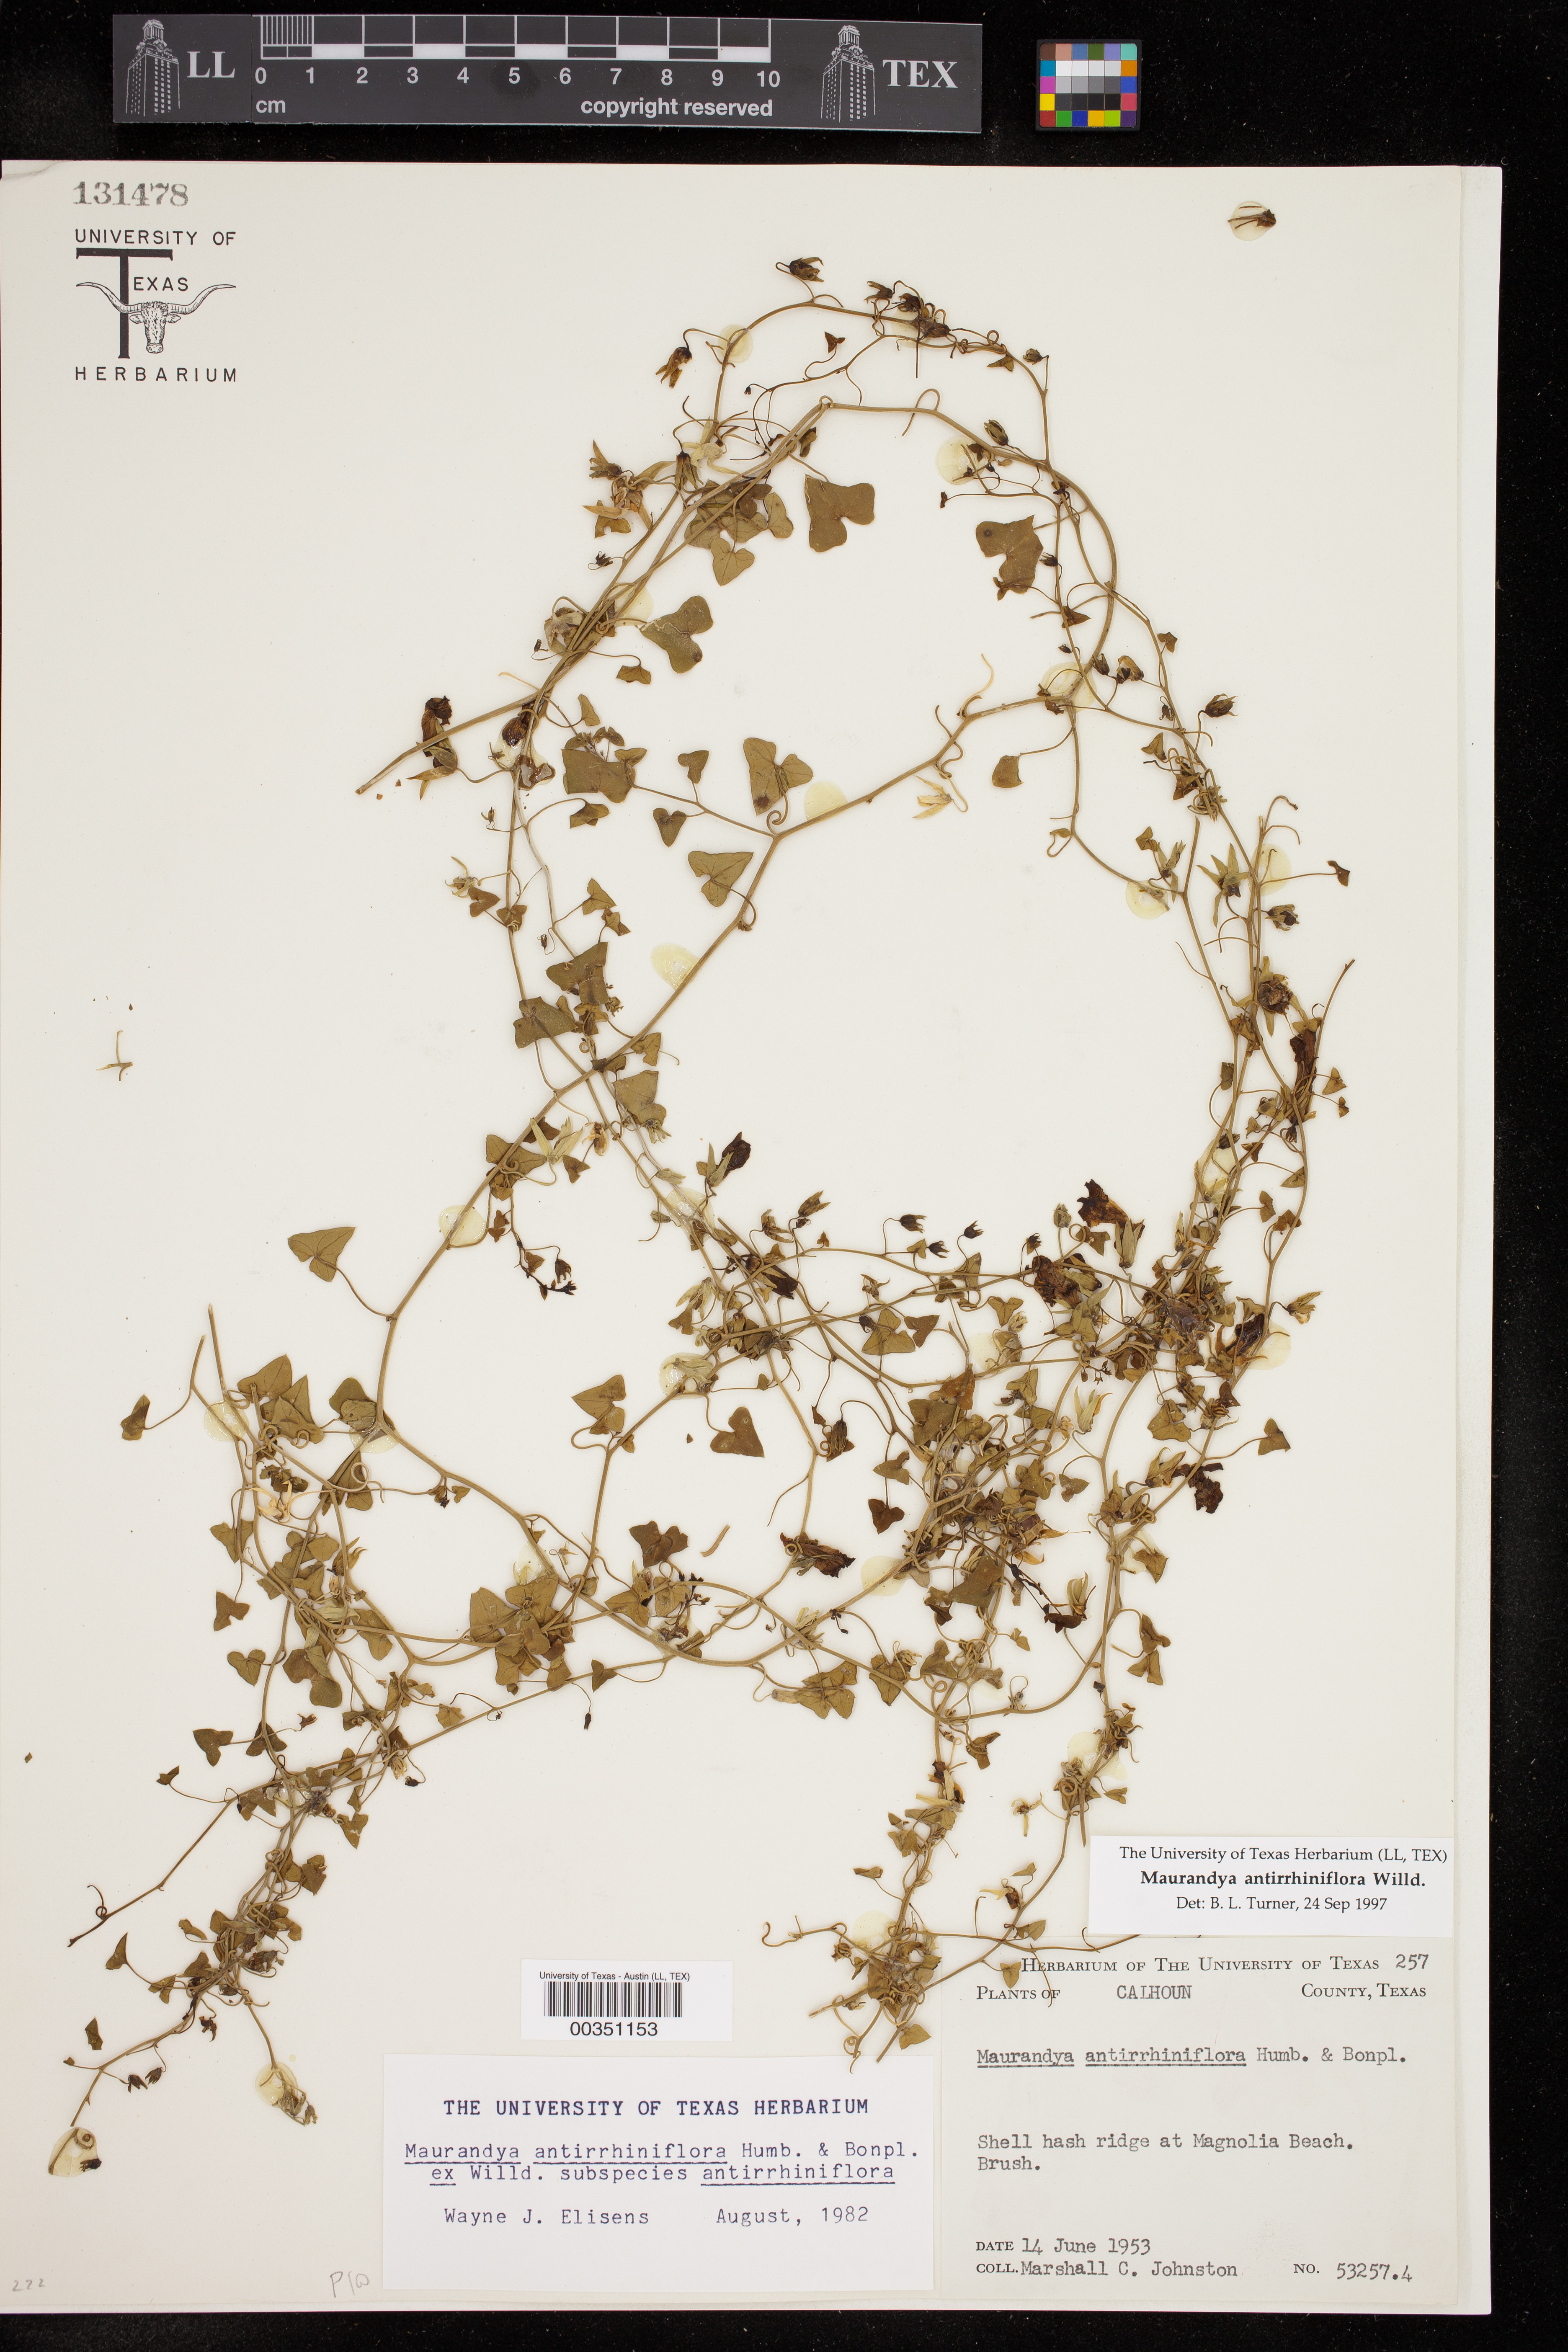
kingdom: Plantae
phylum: Tracheophyta
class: Magnoliopsida
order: Lamiales
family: Plantaginaceae
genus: Maurandella
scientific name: Maurandella antirrhiniflora
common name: Violet twining-snapdragon
